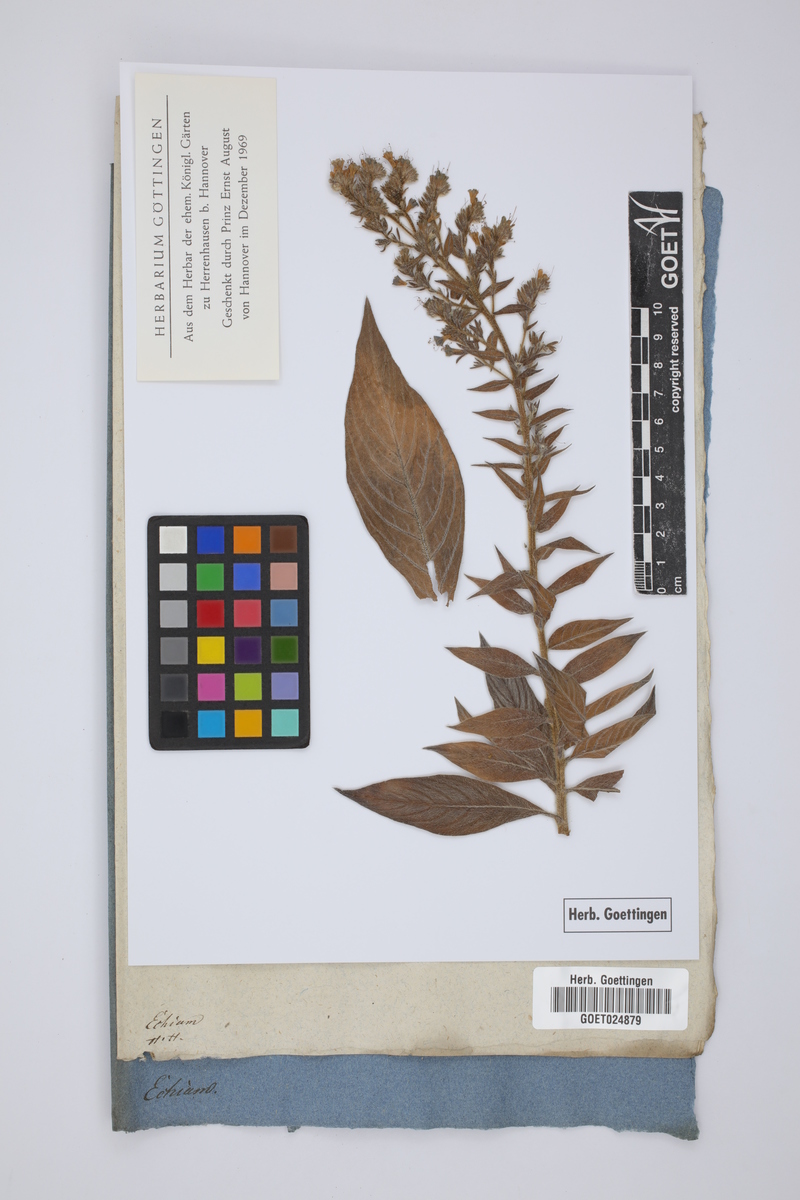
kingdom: Plantae
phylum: Tracheophyta
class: Magnoliopsida
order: Boraginales
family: Boraginaceae
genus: Echium
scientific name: Echium
